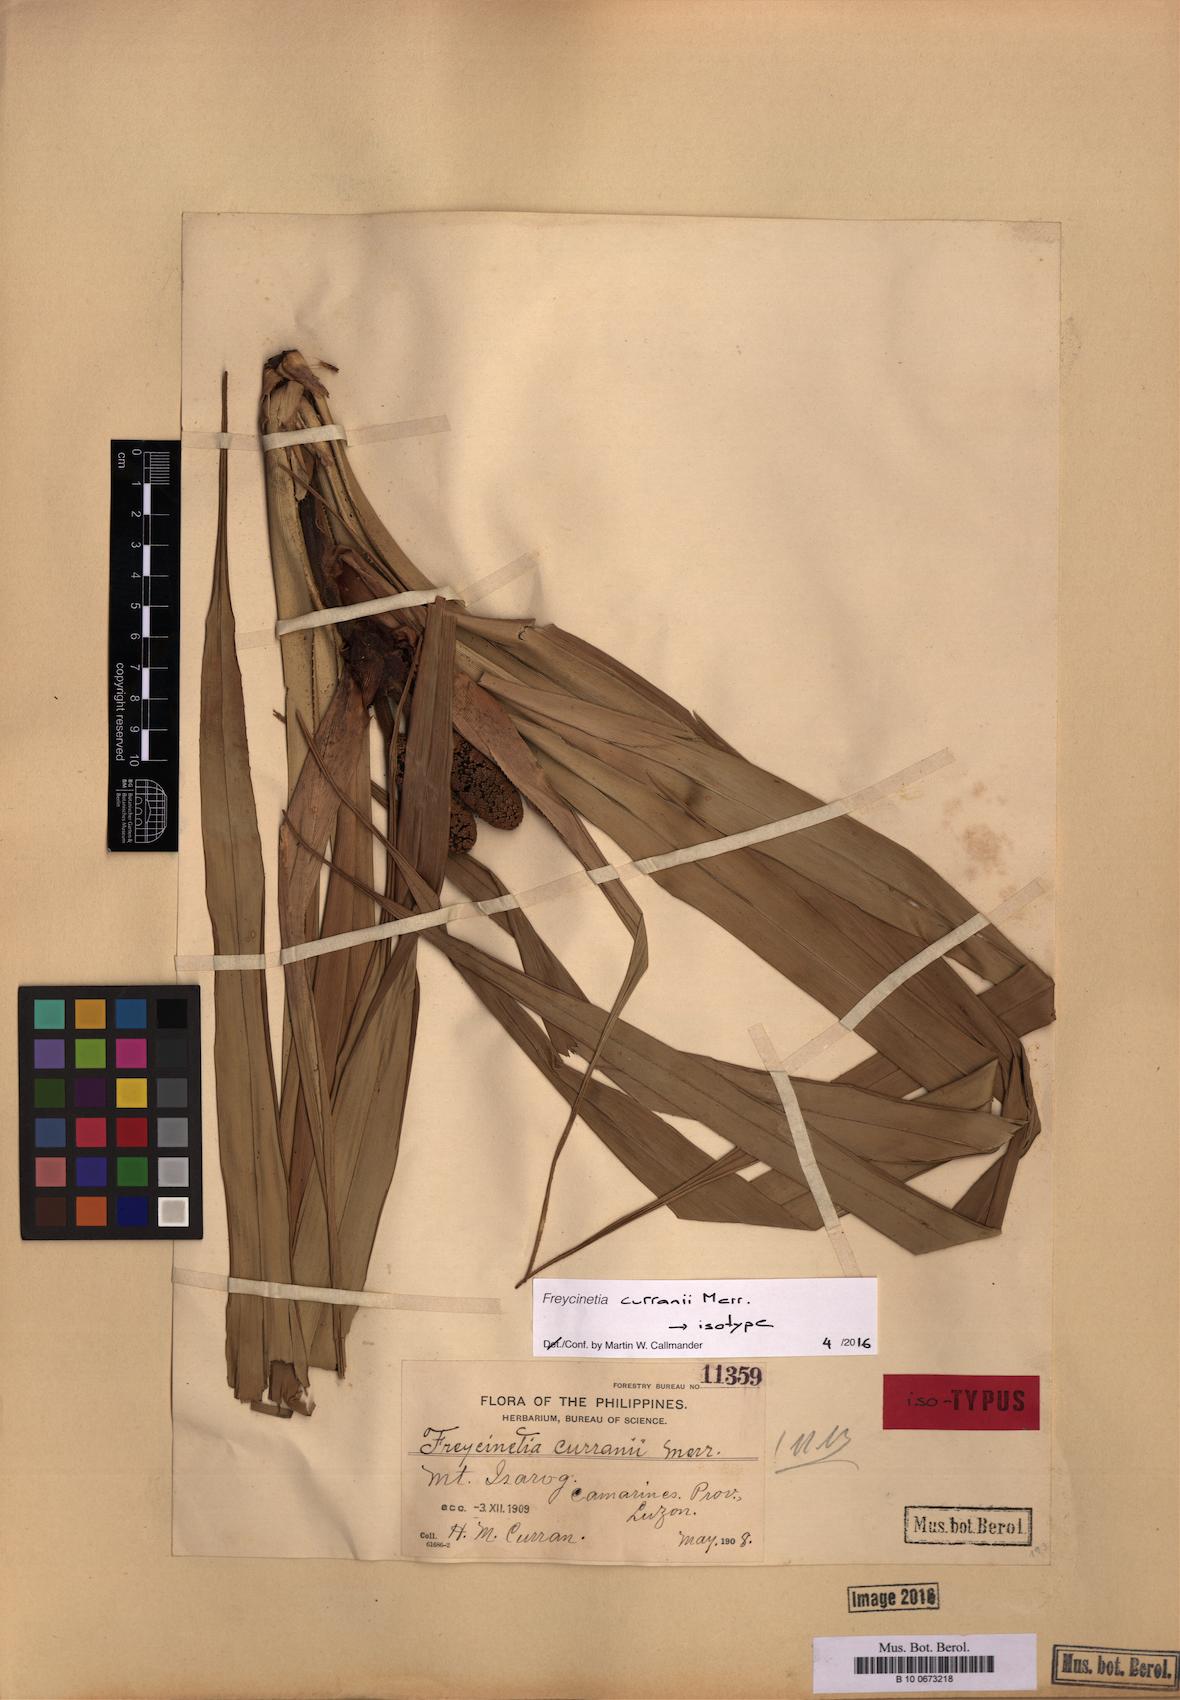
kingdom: Plantae
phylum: Tracheophyta
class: Liliopsida
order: Pandanales
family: Pandanaceae
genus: Freycinetia
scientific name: Freycinetia curranii
